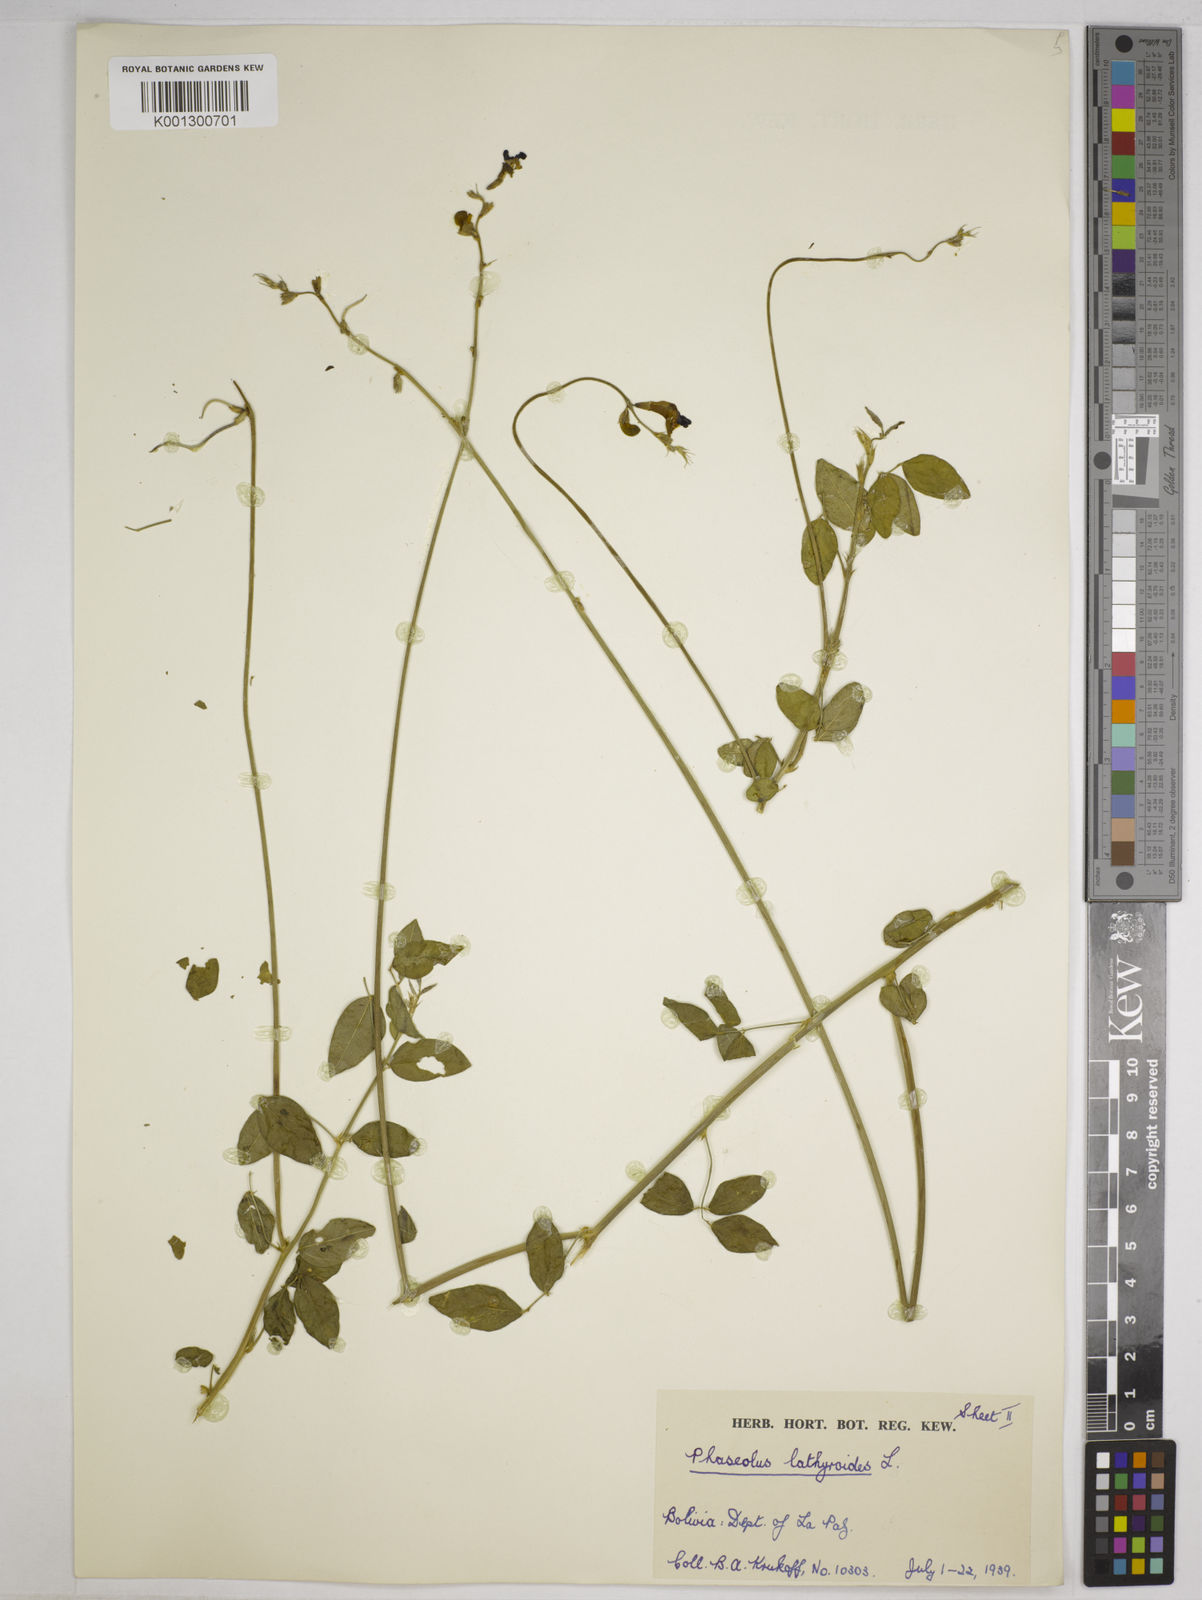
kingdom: Plantae
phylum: Tracheophyta
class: Magnoliopsida
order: Fabales
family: Fabaceae
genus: Macroptilium
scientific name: Macroptilium lathyroides
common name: Wild bushbean
